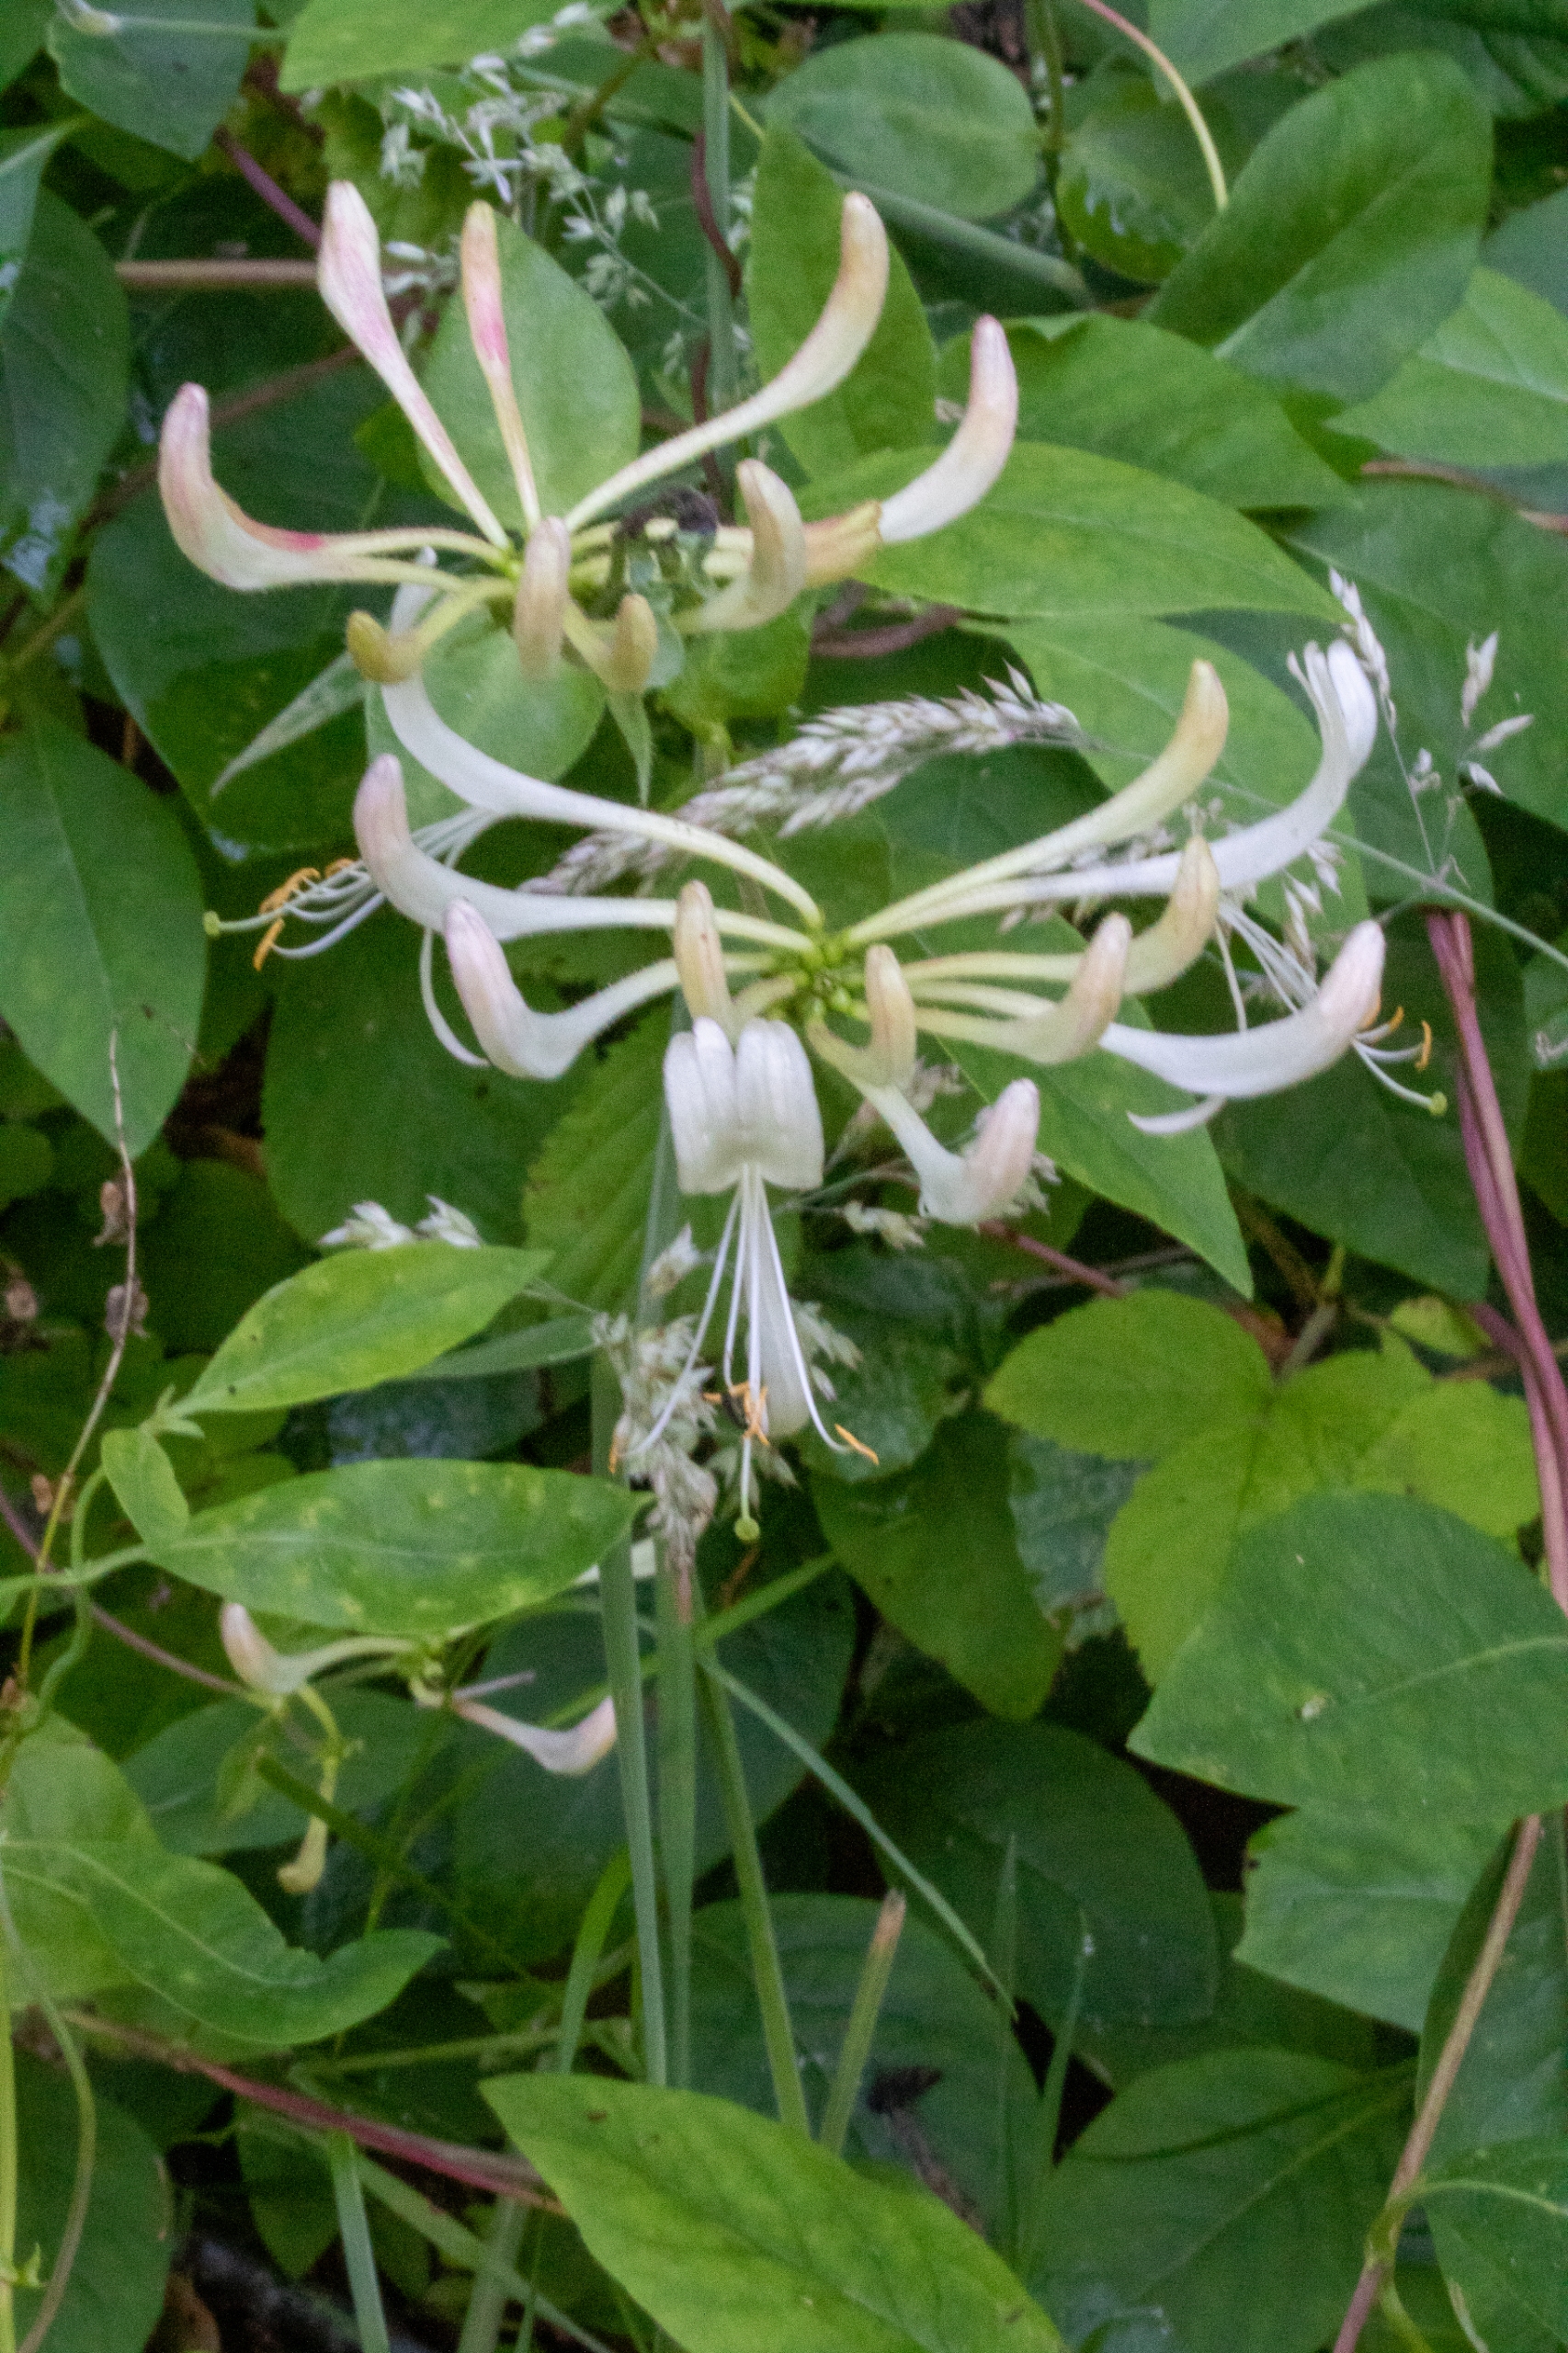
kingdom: Plantae
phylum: Tracheophyta
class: Magnoliopsida
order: Dipsacales
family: Caprifoliaceae
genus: Lonicera
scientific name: Lonicera periclymenum
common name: Almindelig gedeblad
